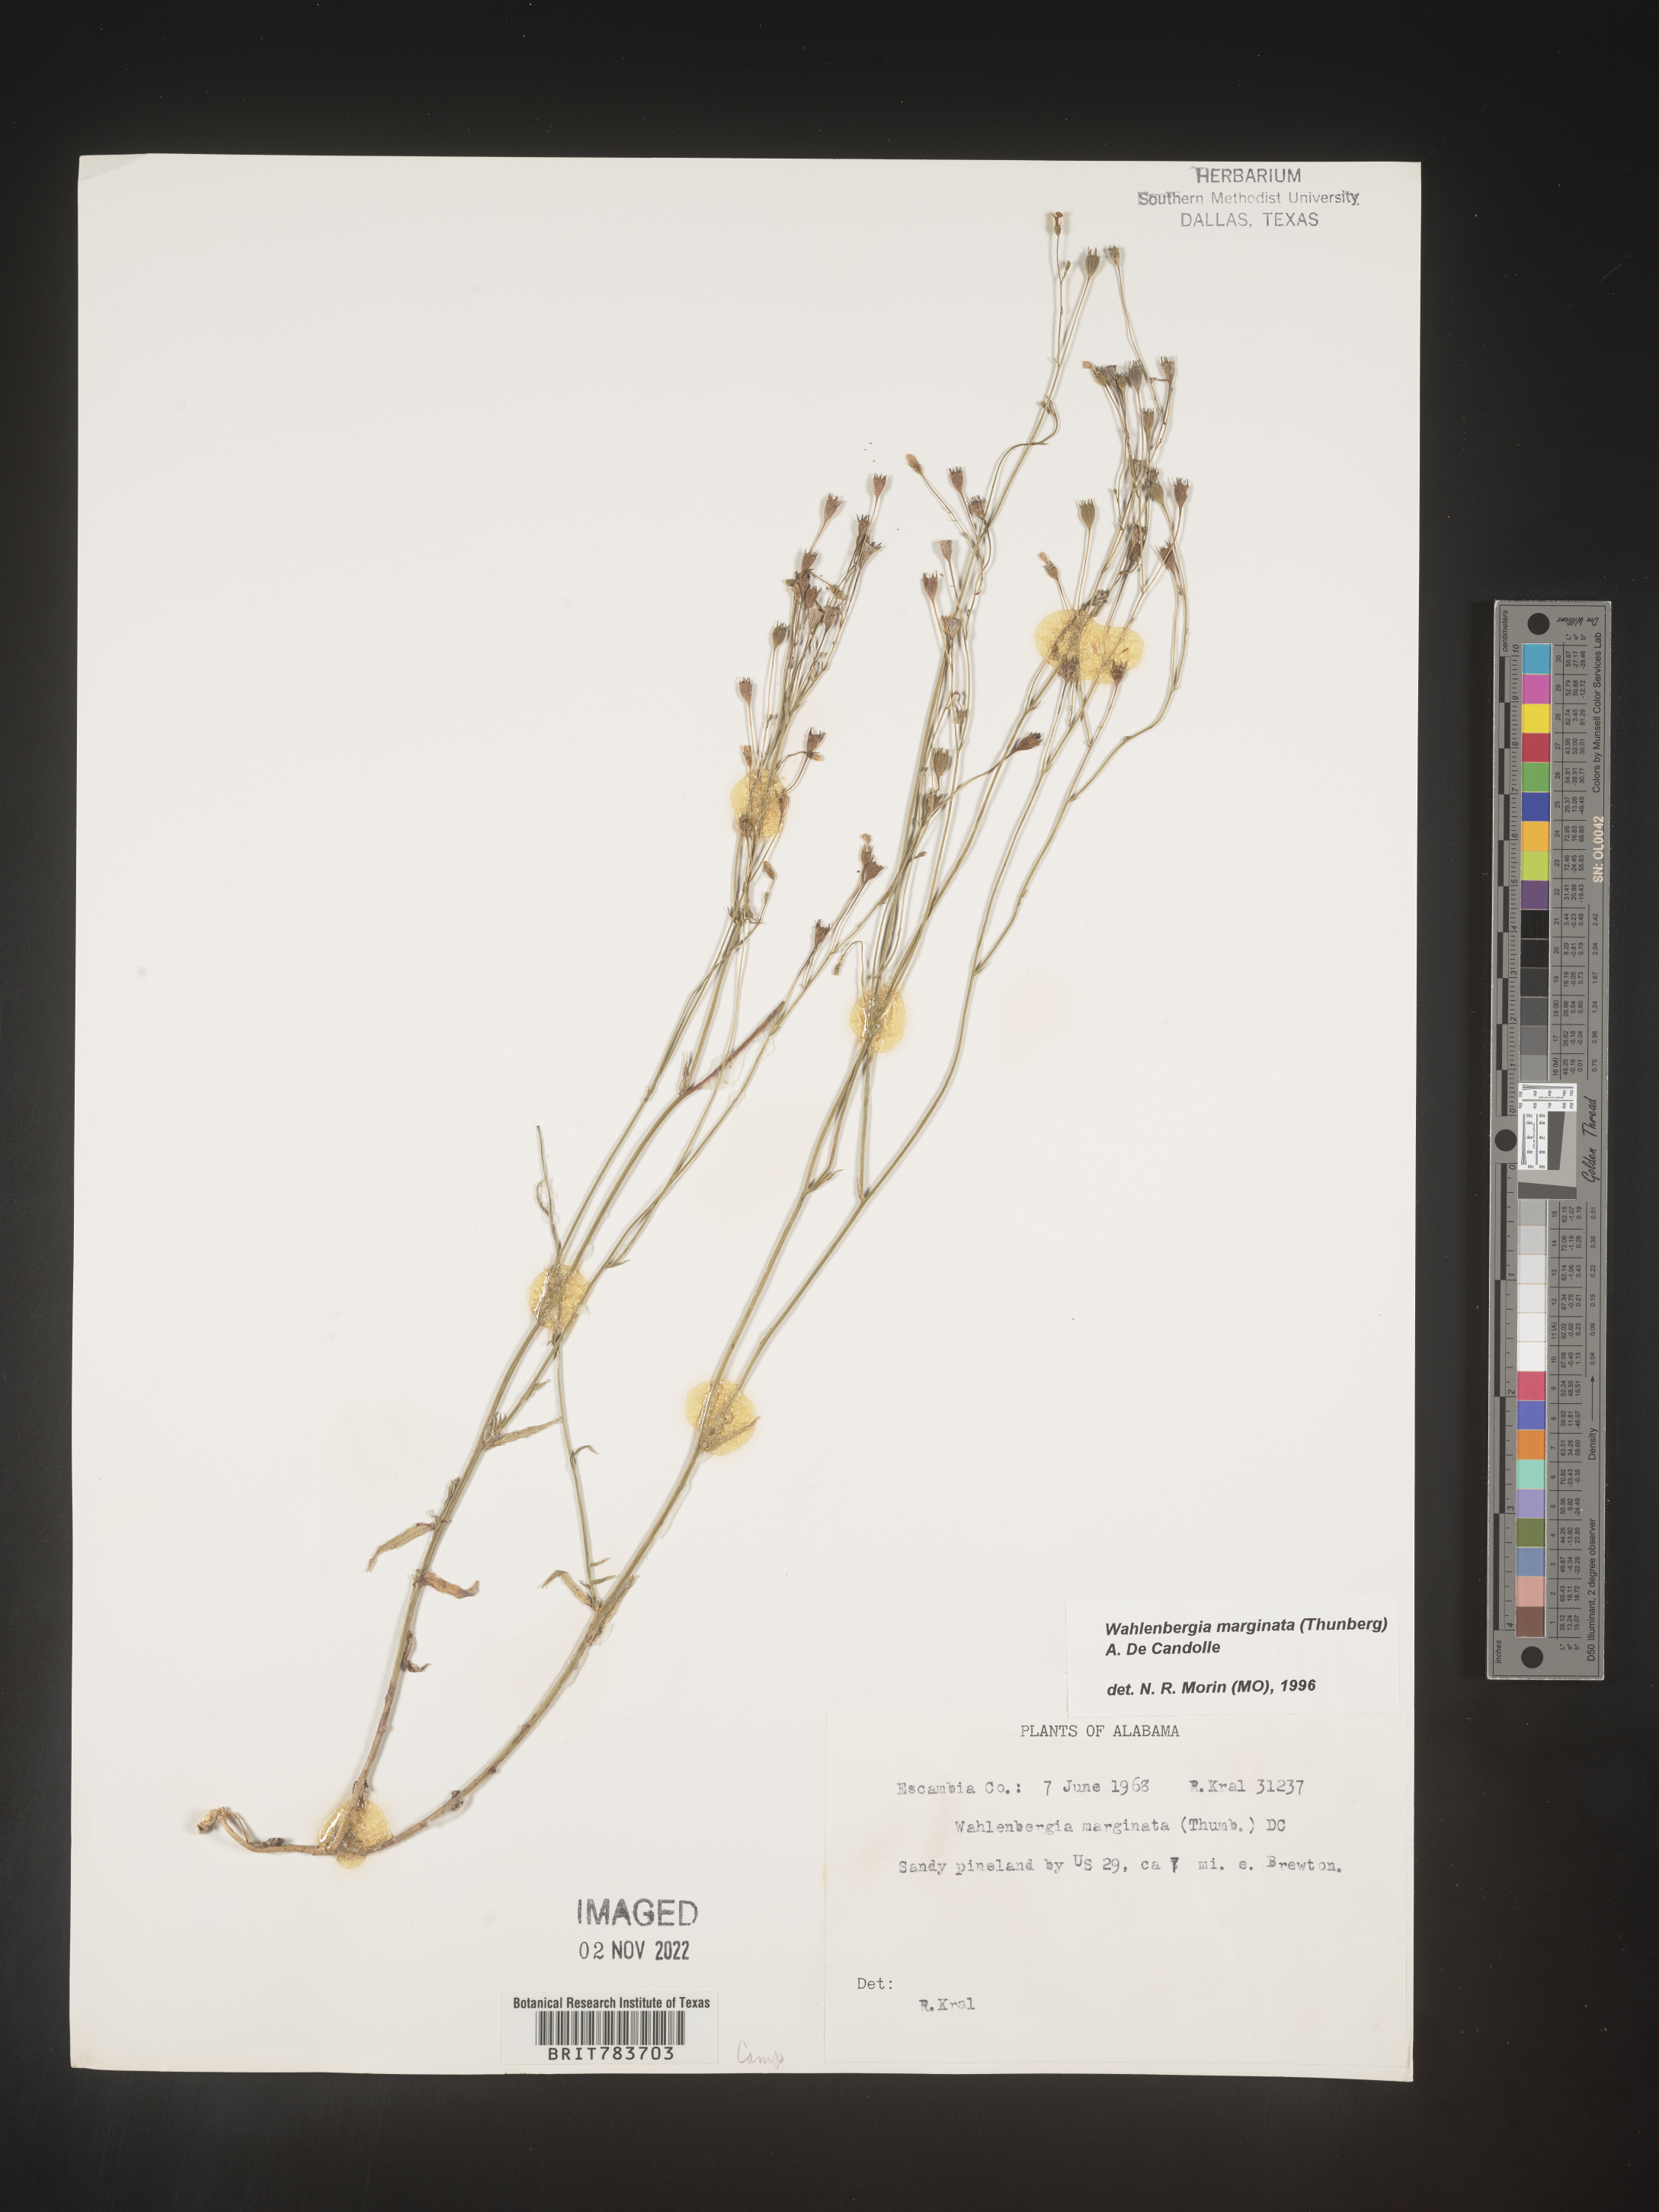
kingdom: Plantae
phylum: Tracheophyta
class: Magnoliopsida
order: Asterales
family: Campanulaceae
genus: Wahlenbergia
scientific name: Wahlenbergia marginata
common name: Southern rockbell
